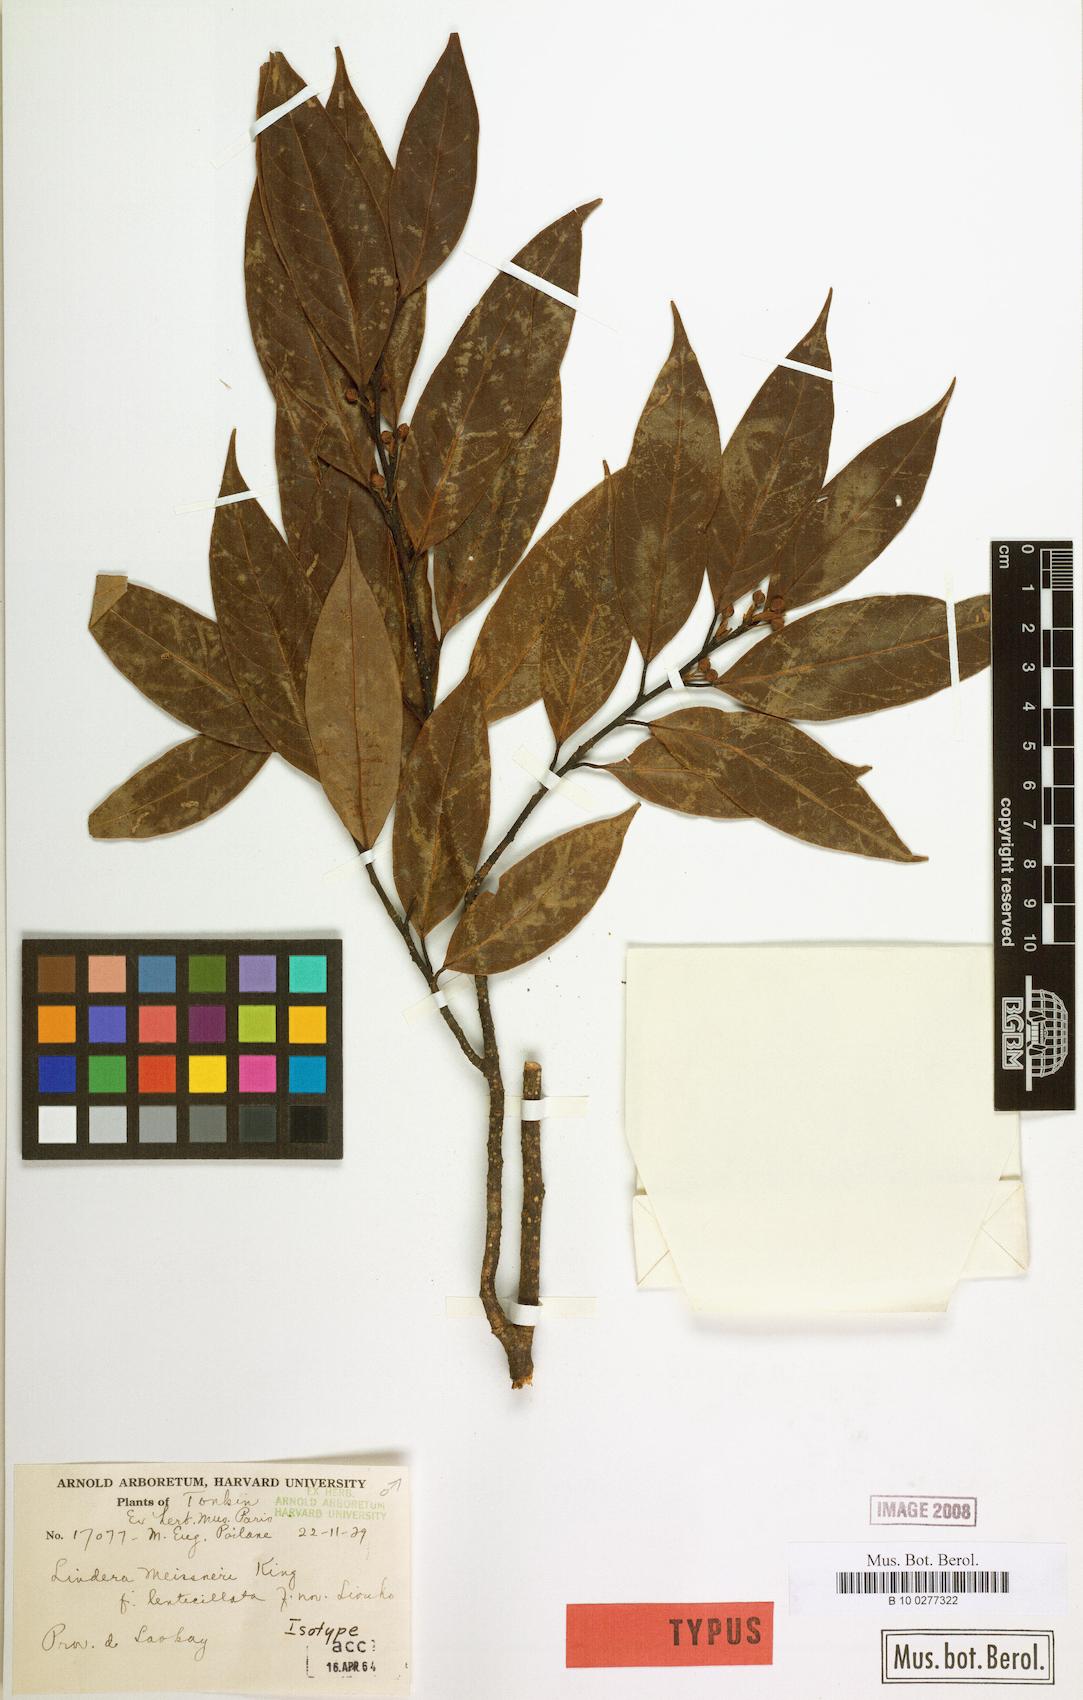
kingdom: Plantae
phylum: Tracheophyta
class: Magnoliopsida
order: Laurales
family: Lauraceae
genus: Lindera
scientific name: Lindera meissneri
